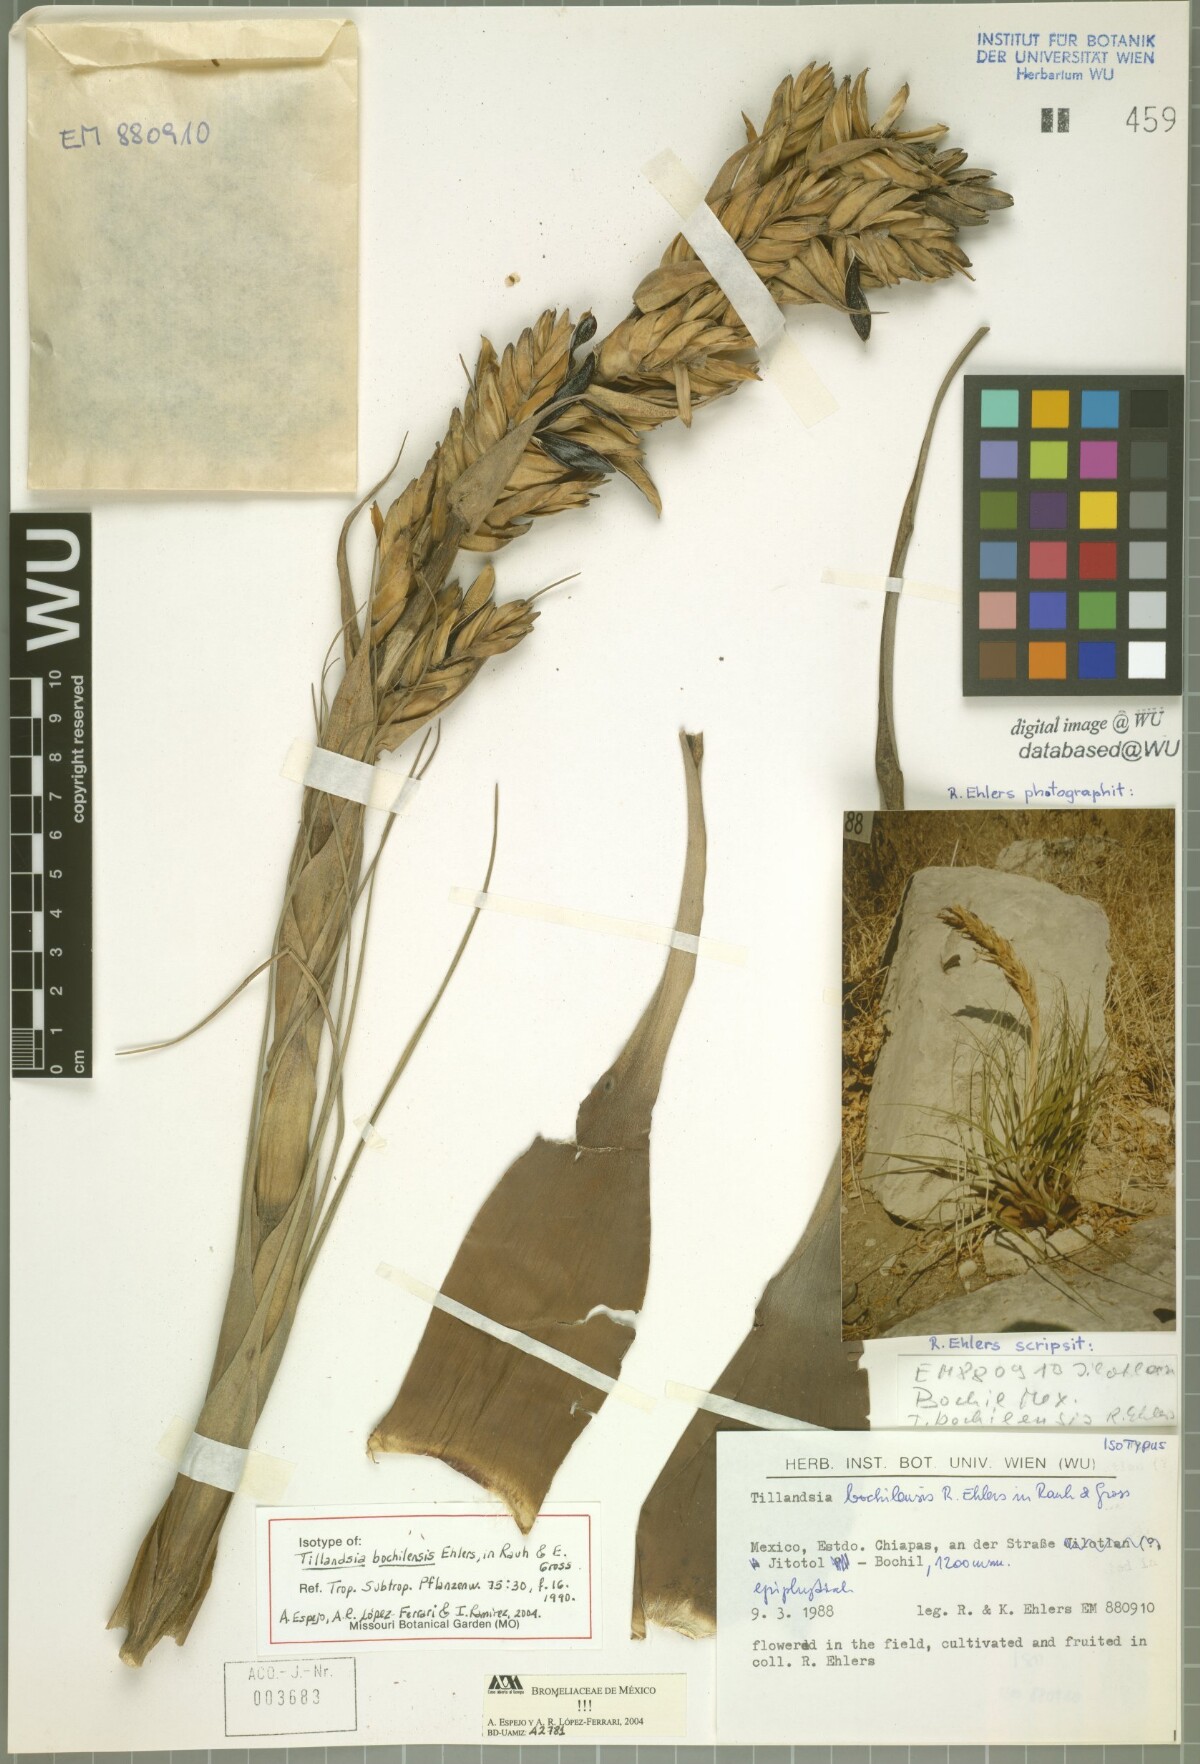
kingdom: Plantae
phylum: Tracheophyta
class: Liliopsida
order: Poales
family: Bromeliaceae
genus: Tillandsia
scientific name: Tillandsia bochilensis
